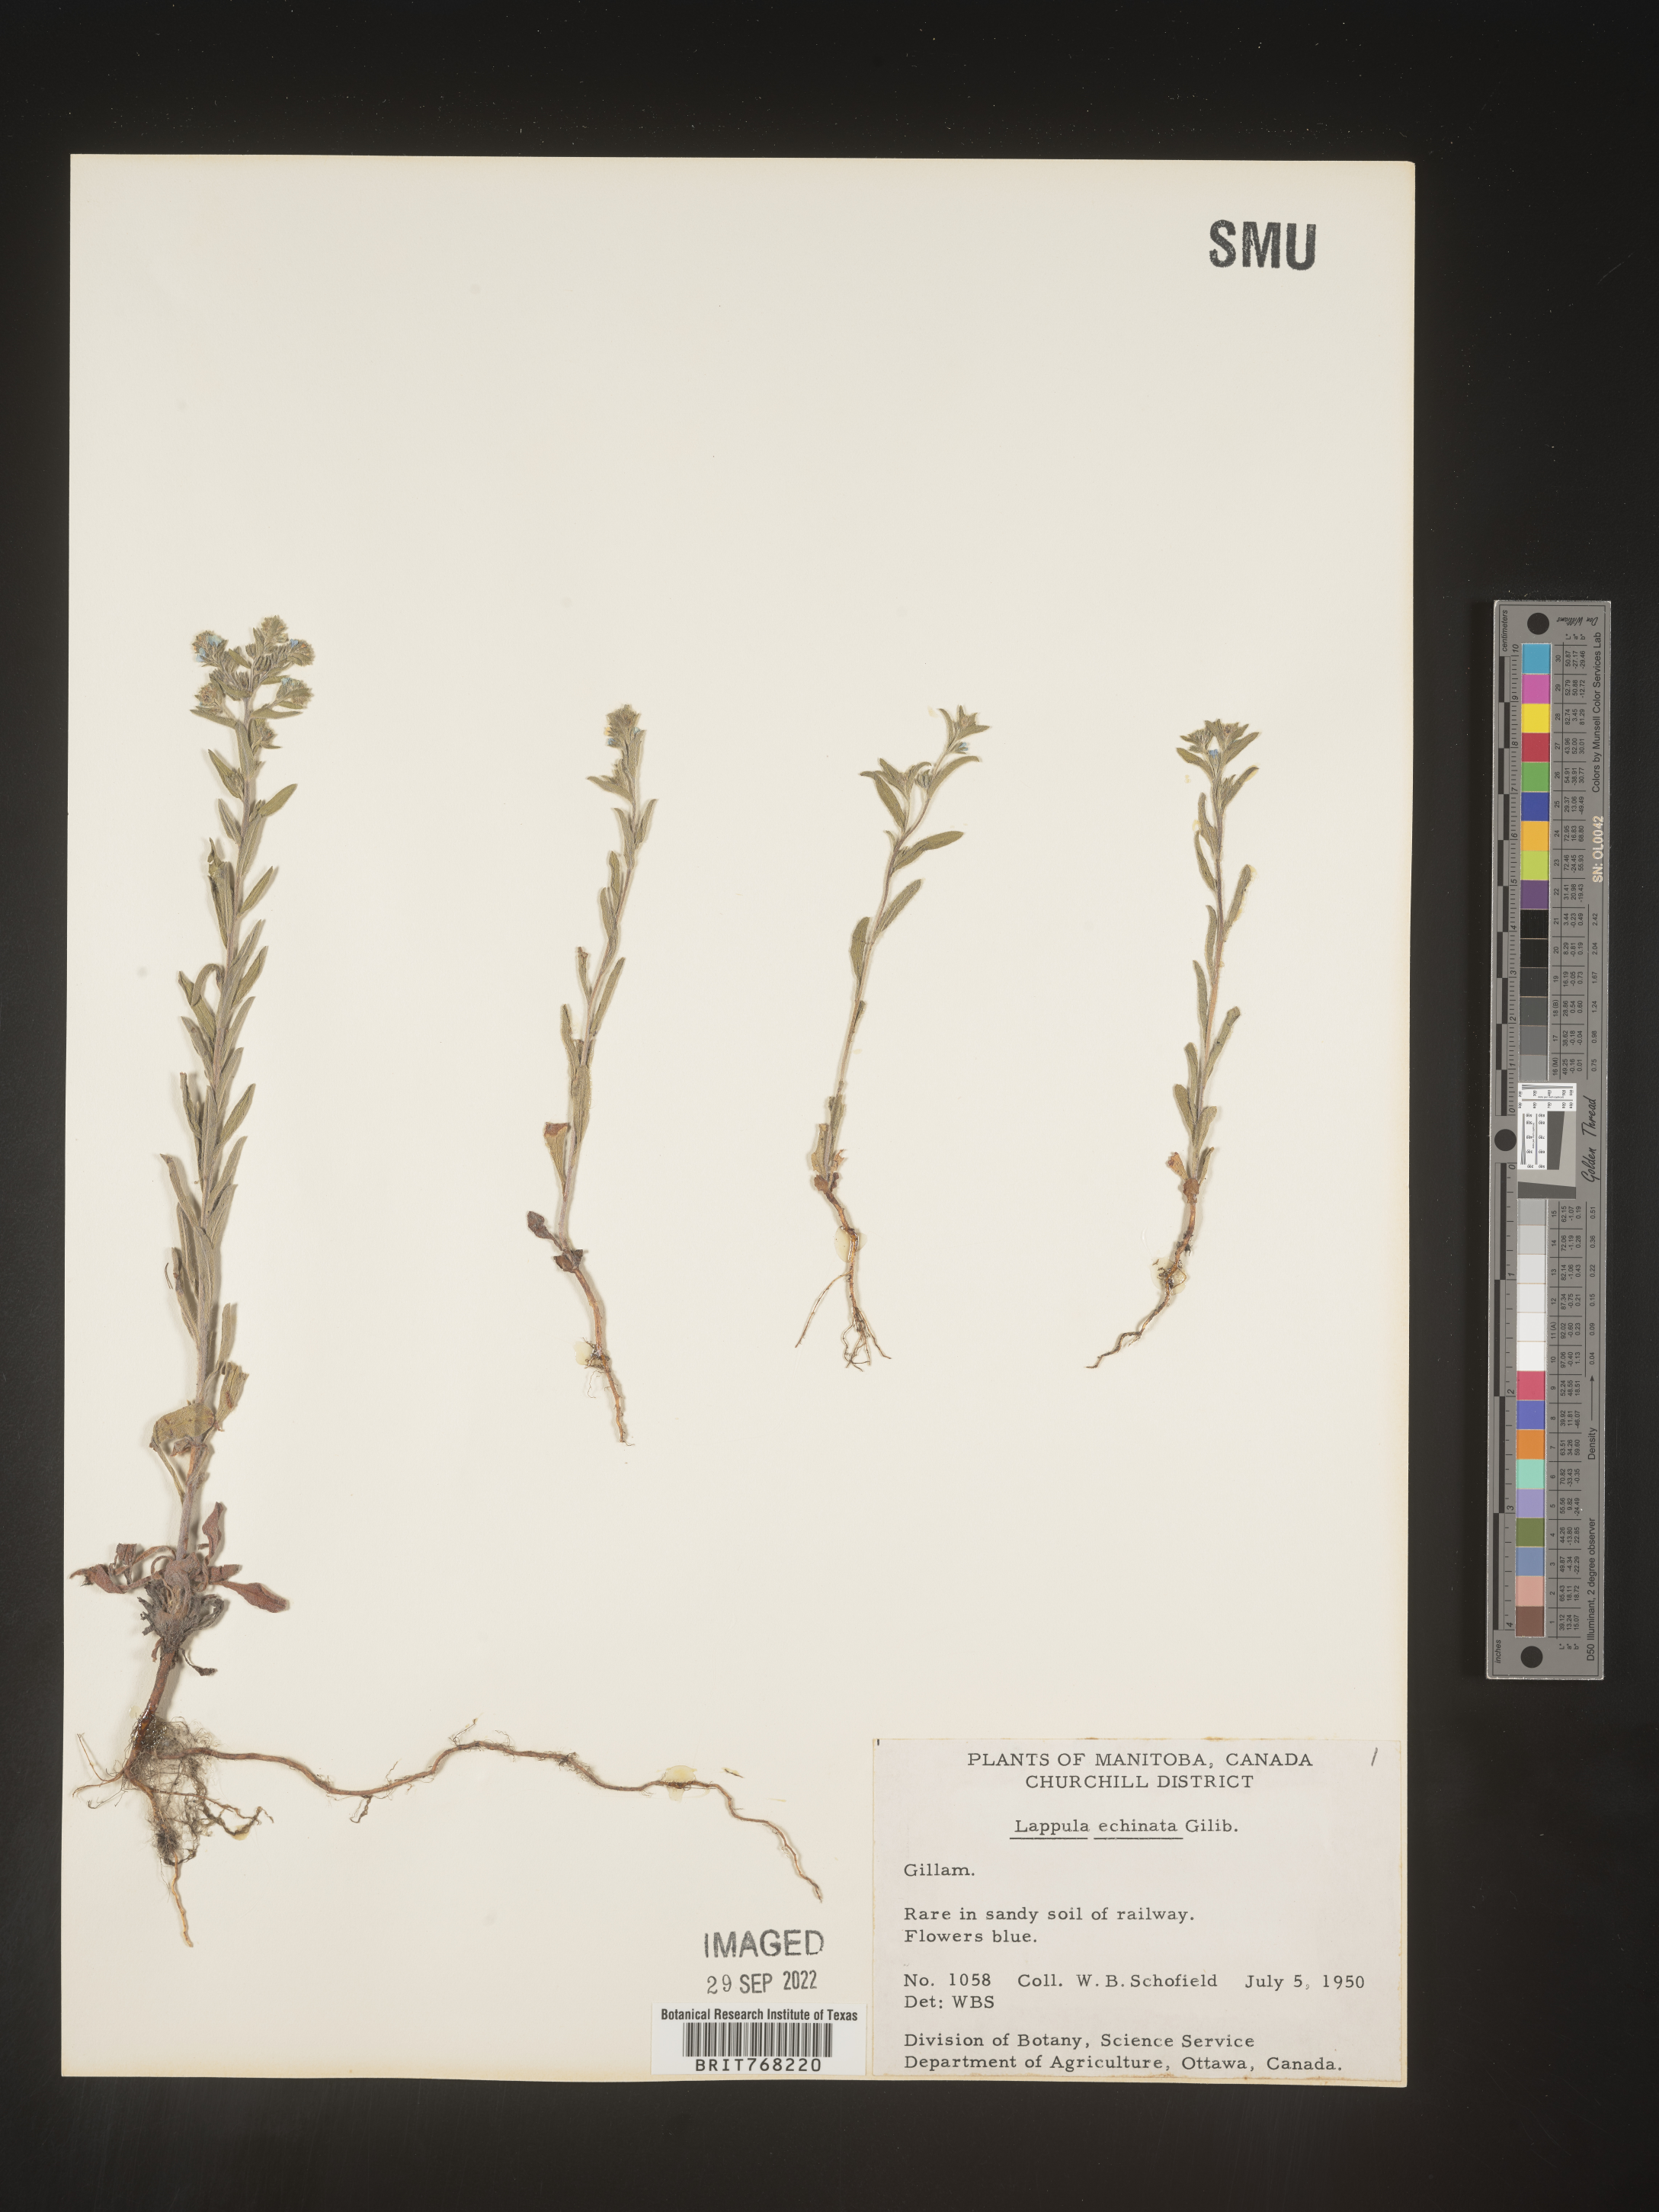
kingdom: Plantae
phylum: Tracheophyta
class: Magnoliopsida
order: Boraginales
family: Boraginaceae
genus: Lappula
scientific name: Lappula
